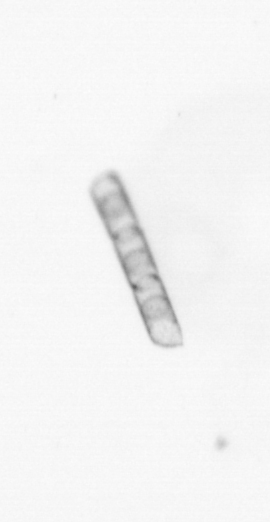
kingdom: Chromista
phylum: Ochrophyta
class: Bacillariophyceae
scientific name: Bacillariophyceae
